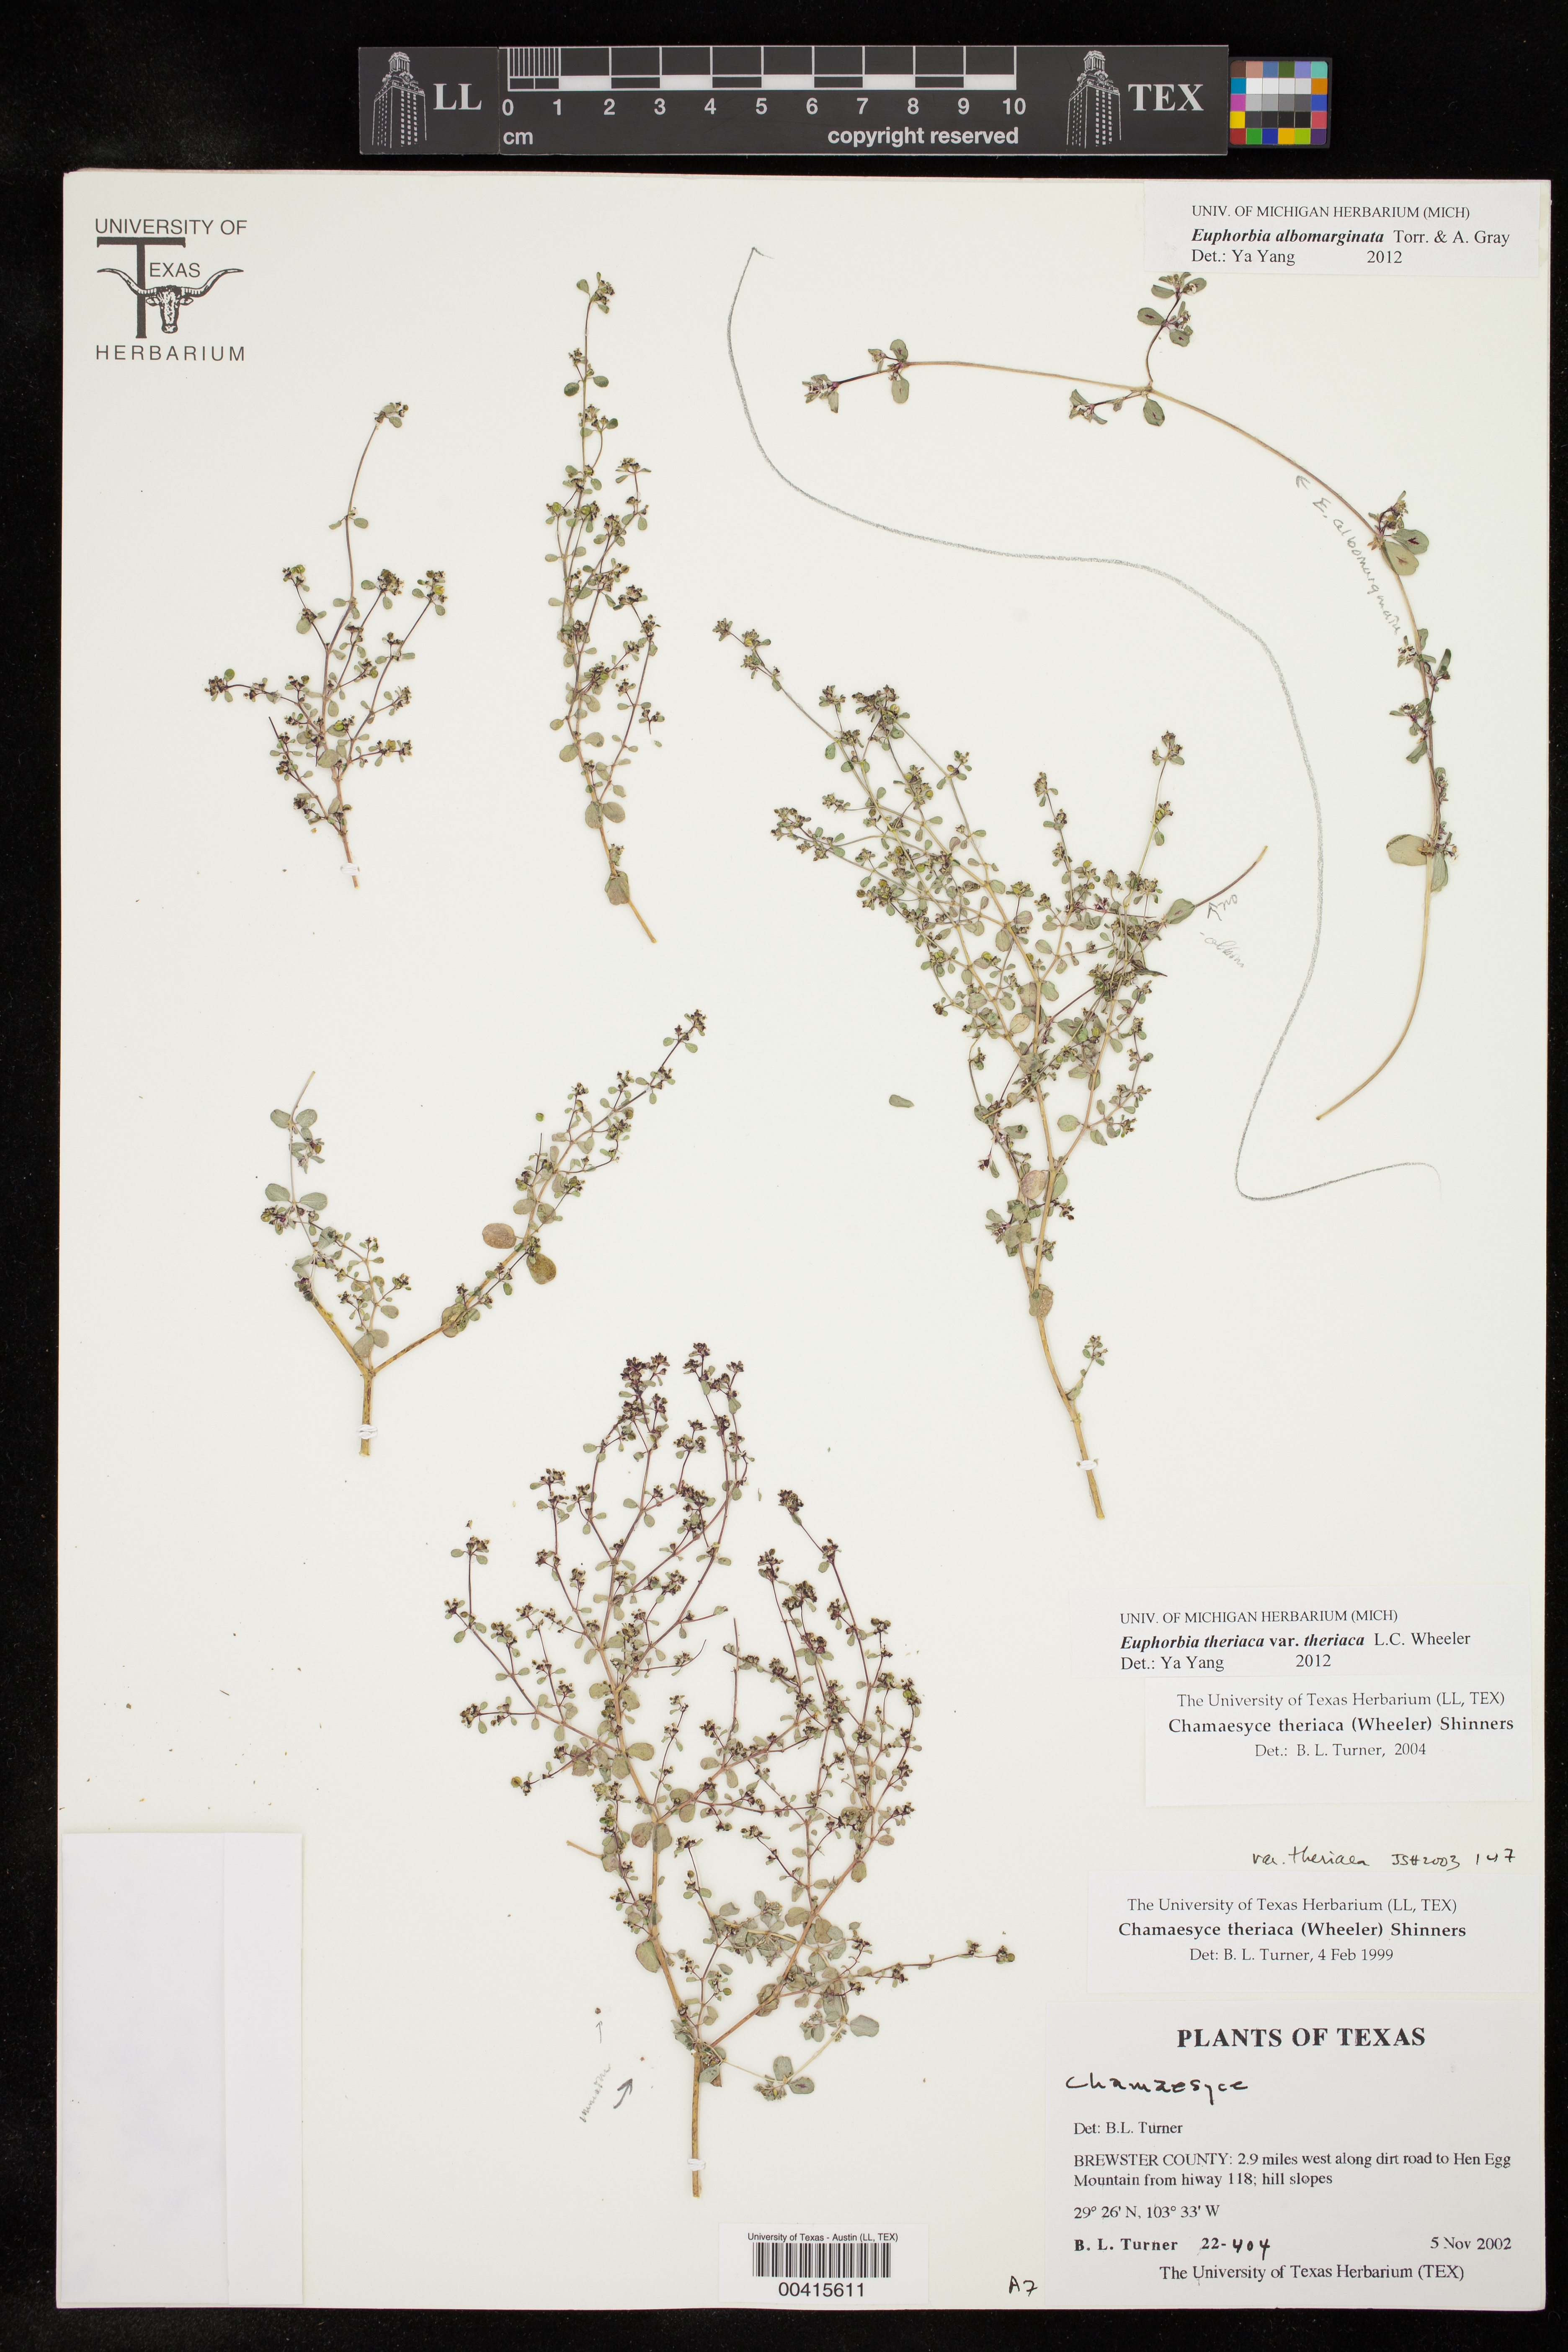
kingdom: Plantae
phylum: Tracheophyta
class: Magnoliopsida
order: Malpighiales
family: Euphorbiaceae
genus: Euphorbia
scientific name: Euphorbia theriaca
